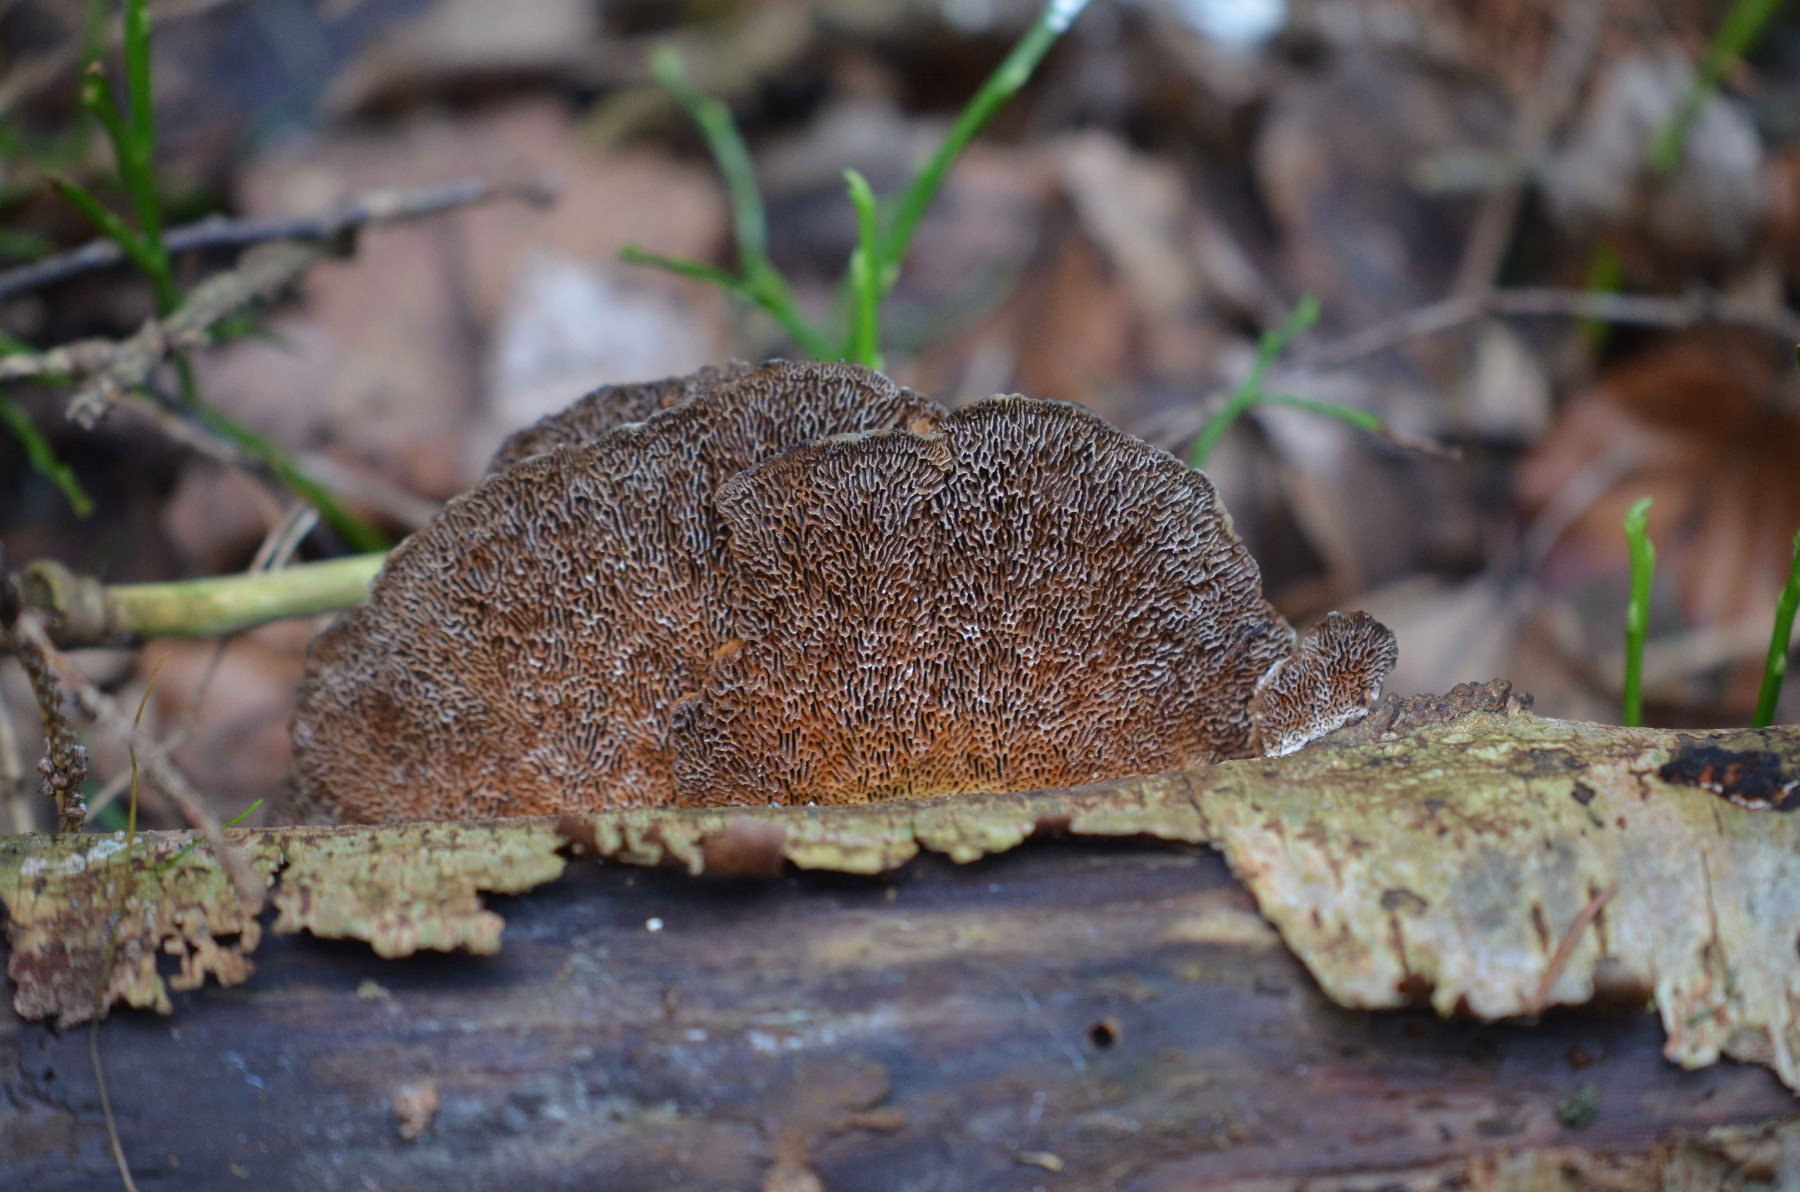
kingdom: Fungi
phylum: Basidiomycota
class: Agaricomycetes
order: Polyporales
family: Polyporaceae
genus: Daedaleopsis
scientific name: Daedaleopsis confragosa
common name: rødmende læderporesvamp
